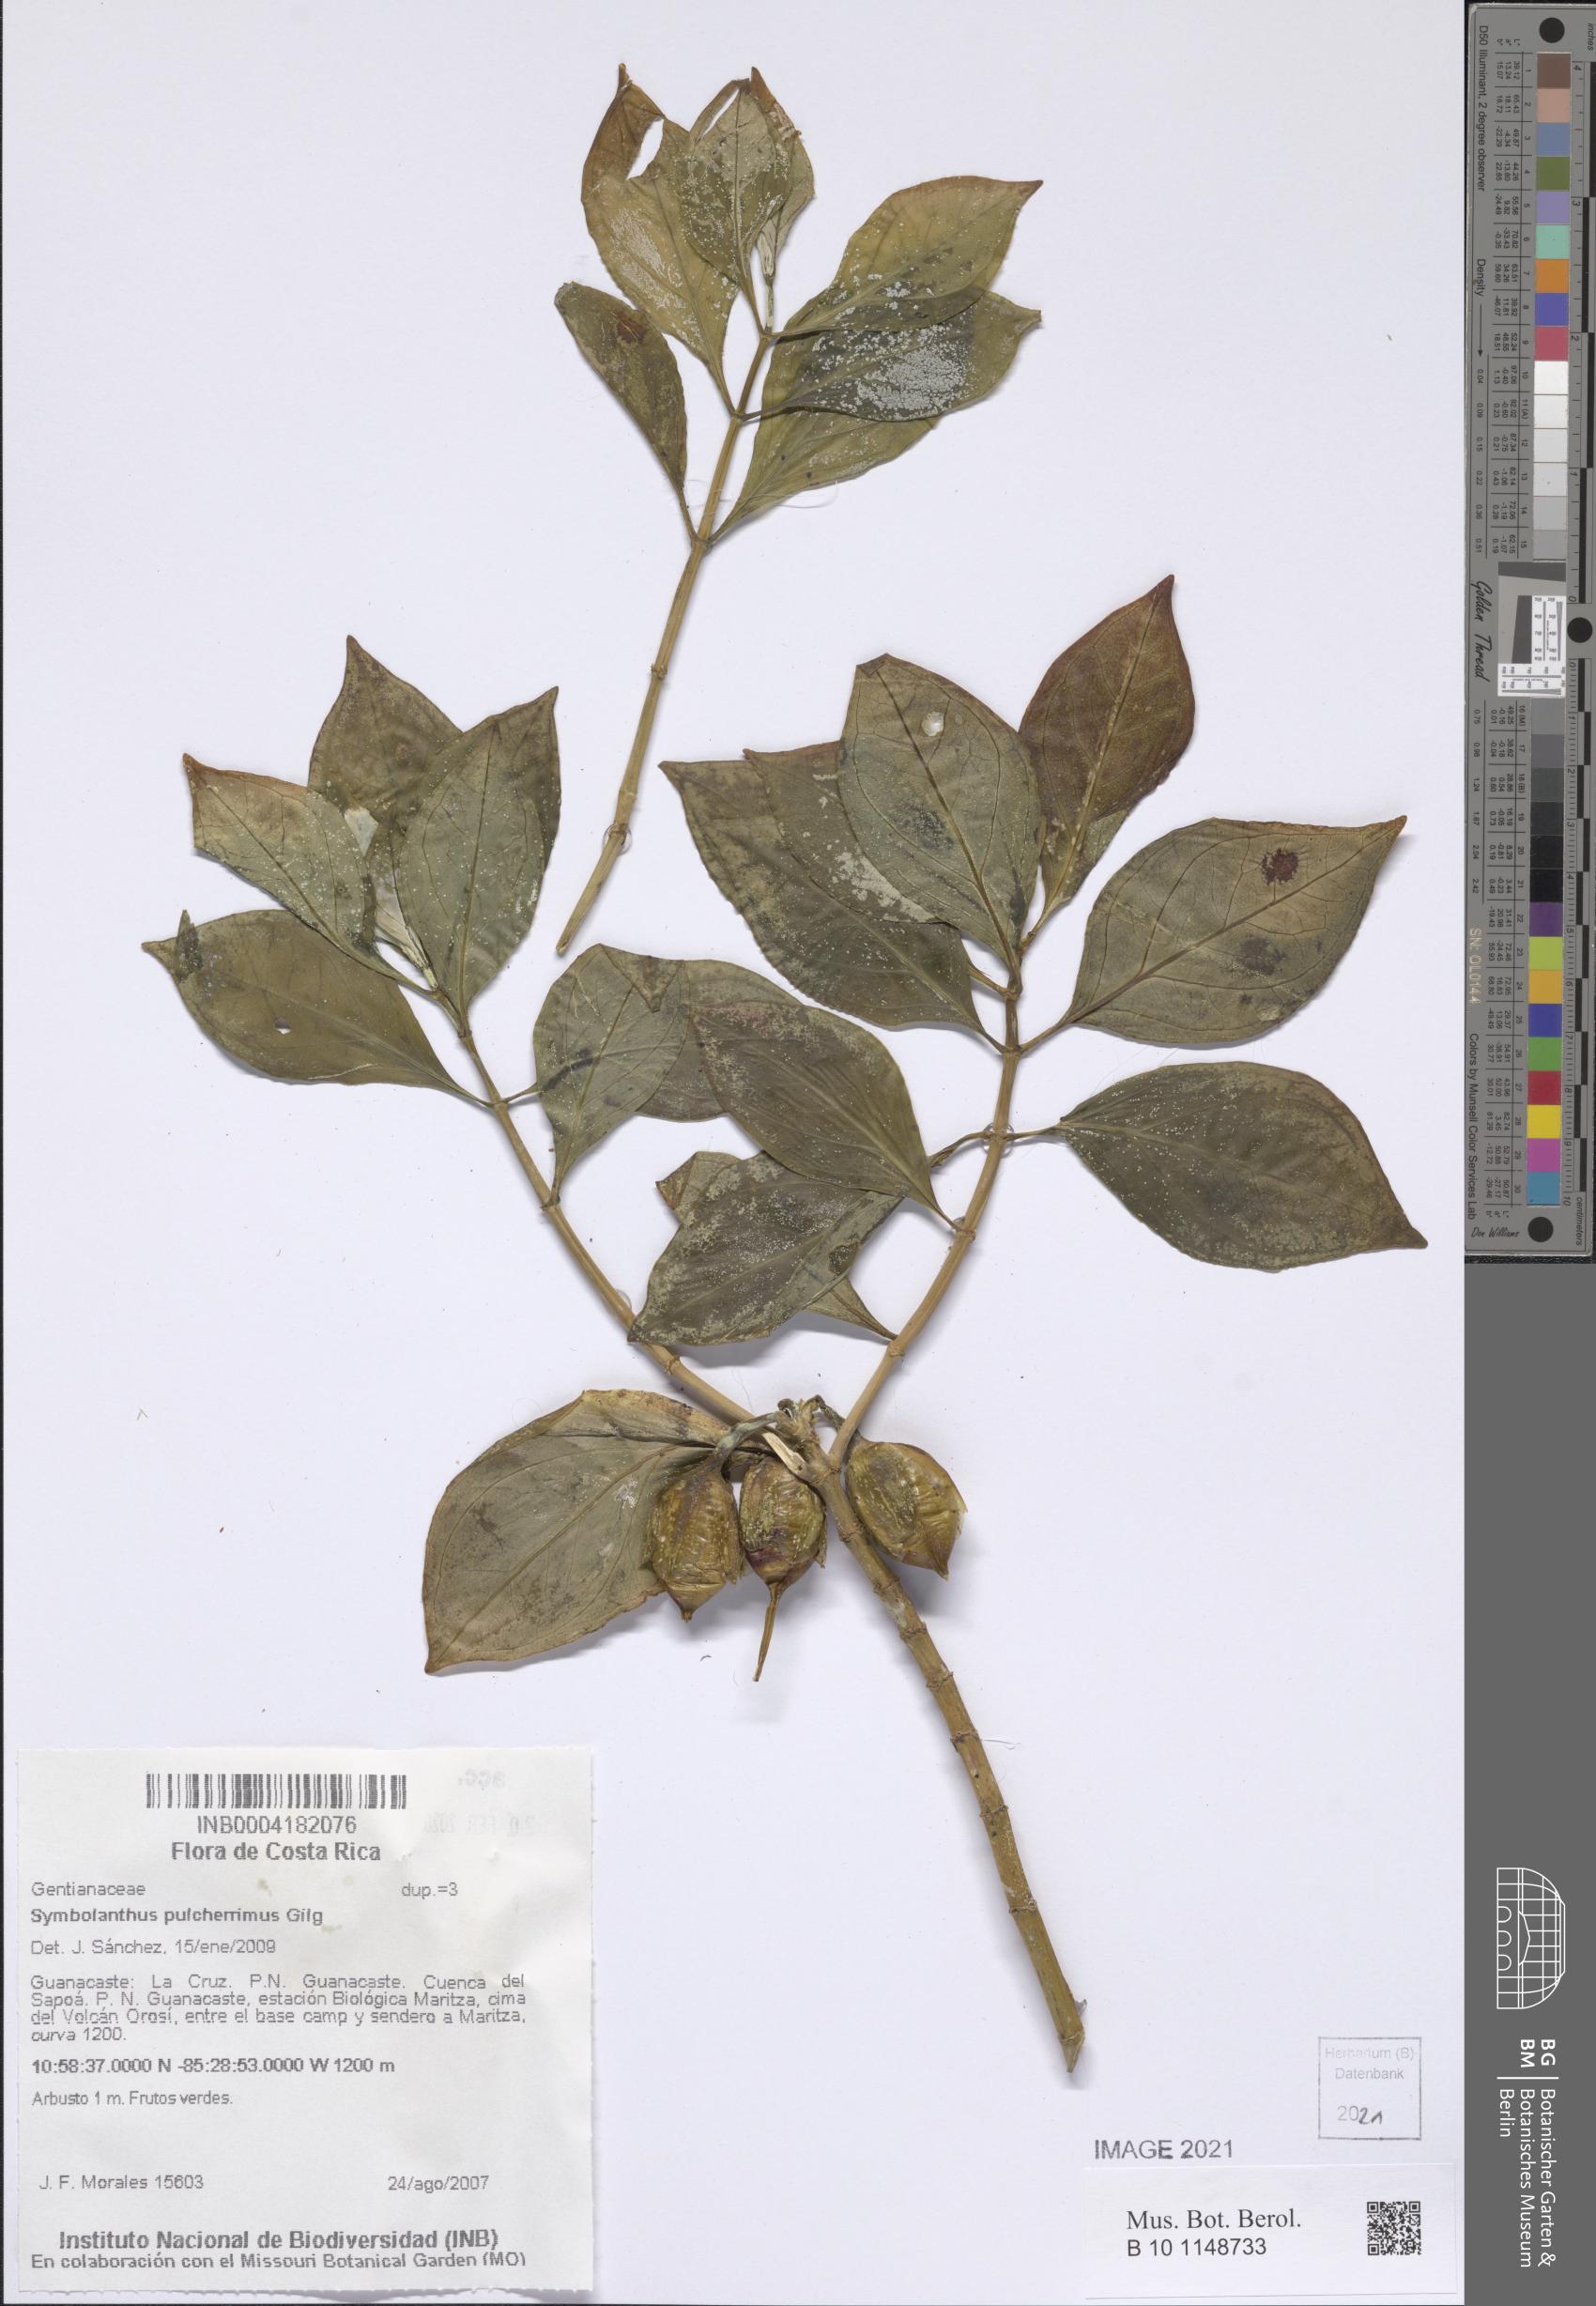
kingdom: Plantae
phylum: Tracheophyta
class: Magnoliopsida
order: Gentianales
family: Gentianaceae
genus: Symbolanthus
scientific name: Symbolanthus pulcherrimus
